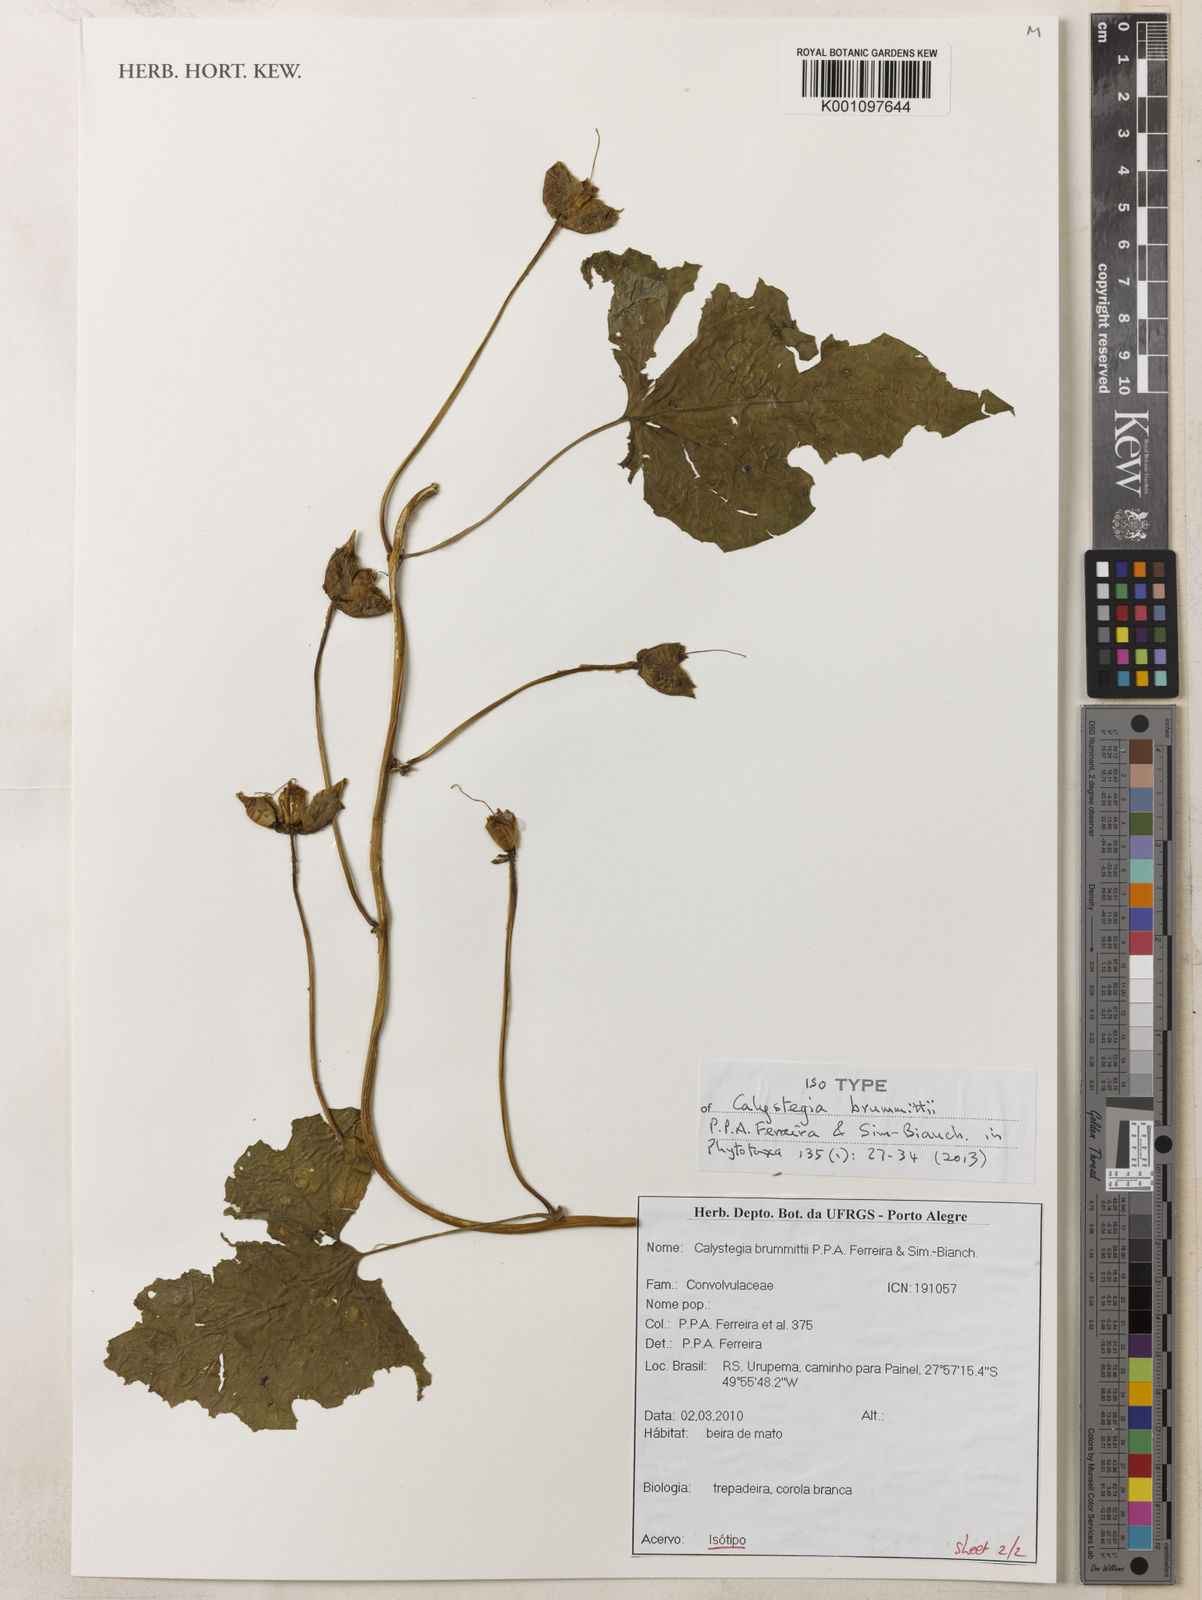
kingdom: Plantae
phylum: Tracheophyta
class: Magnoliopsida
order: Solanales
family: Convolvulaceae
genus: Calystegia
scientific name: Calystegia brummittii
